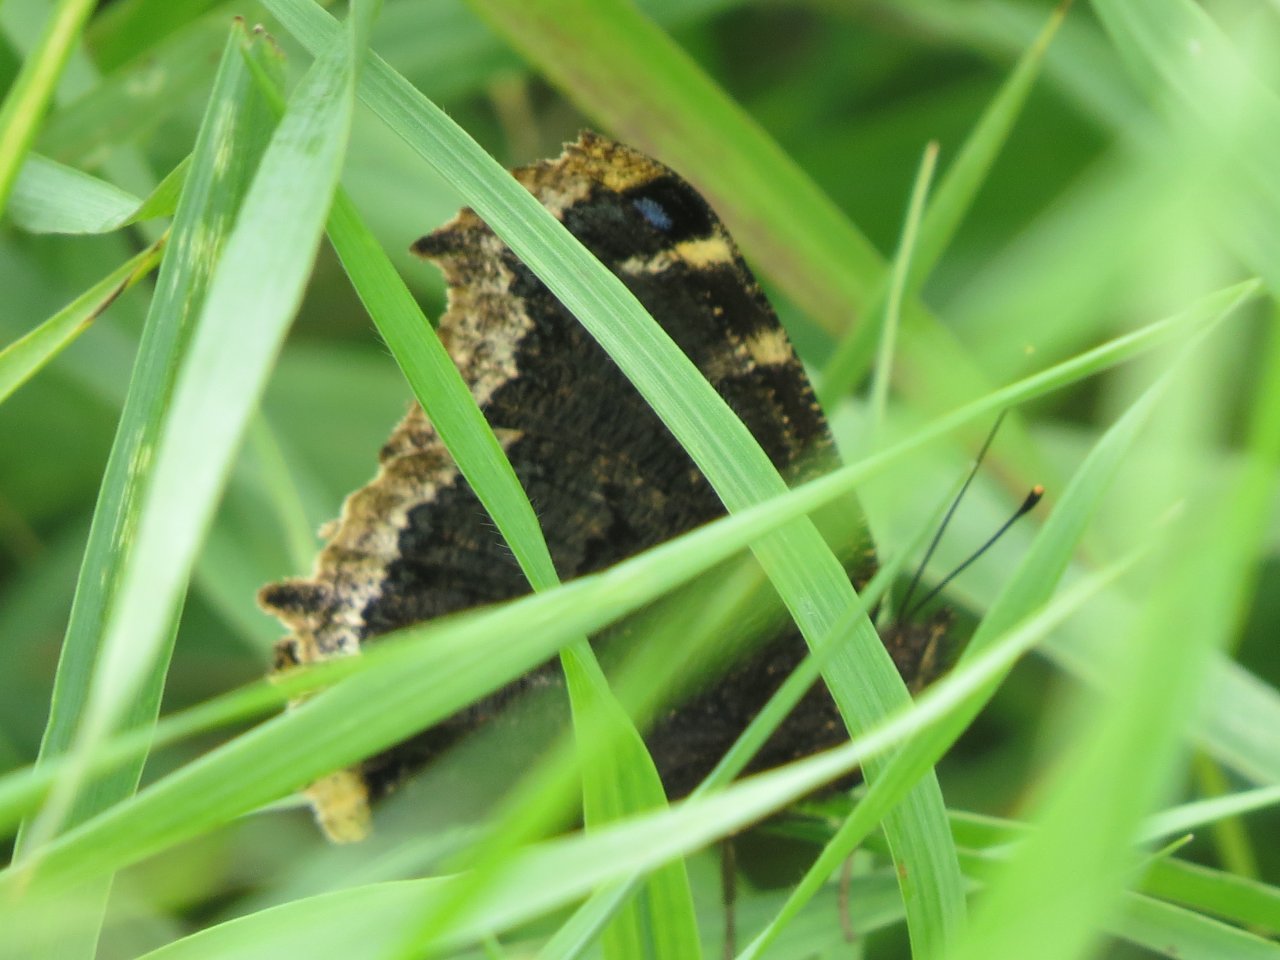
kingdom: Animalia
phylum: Arthropoda
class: Insecta
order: Lepidoptera
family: Nymphalidae
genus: Nymphalis
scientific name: Nymphalis antiopa
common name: Mourning Cloak
